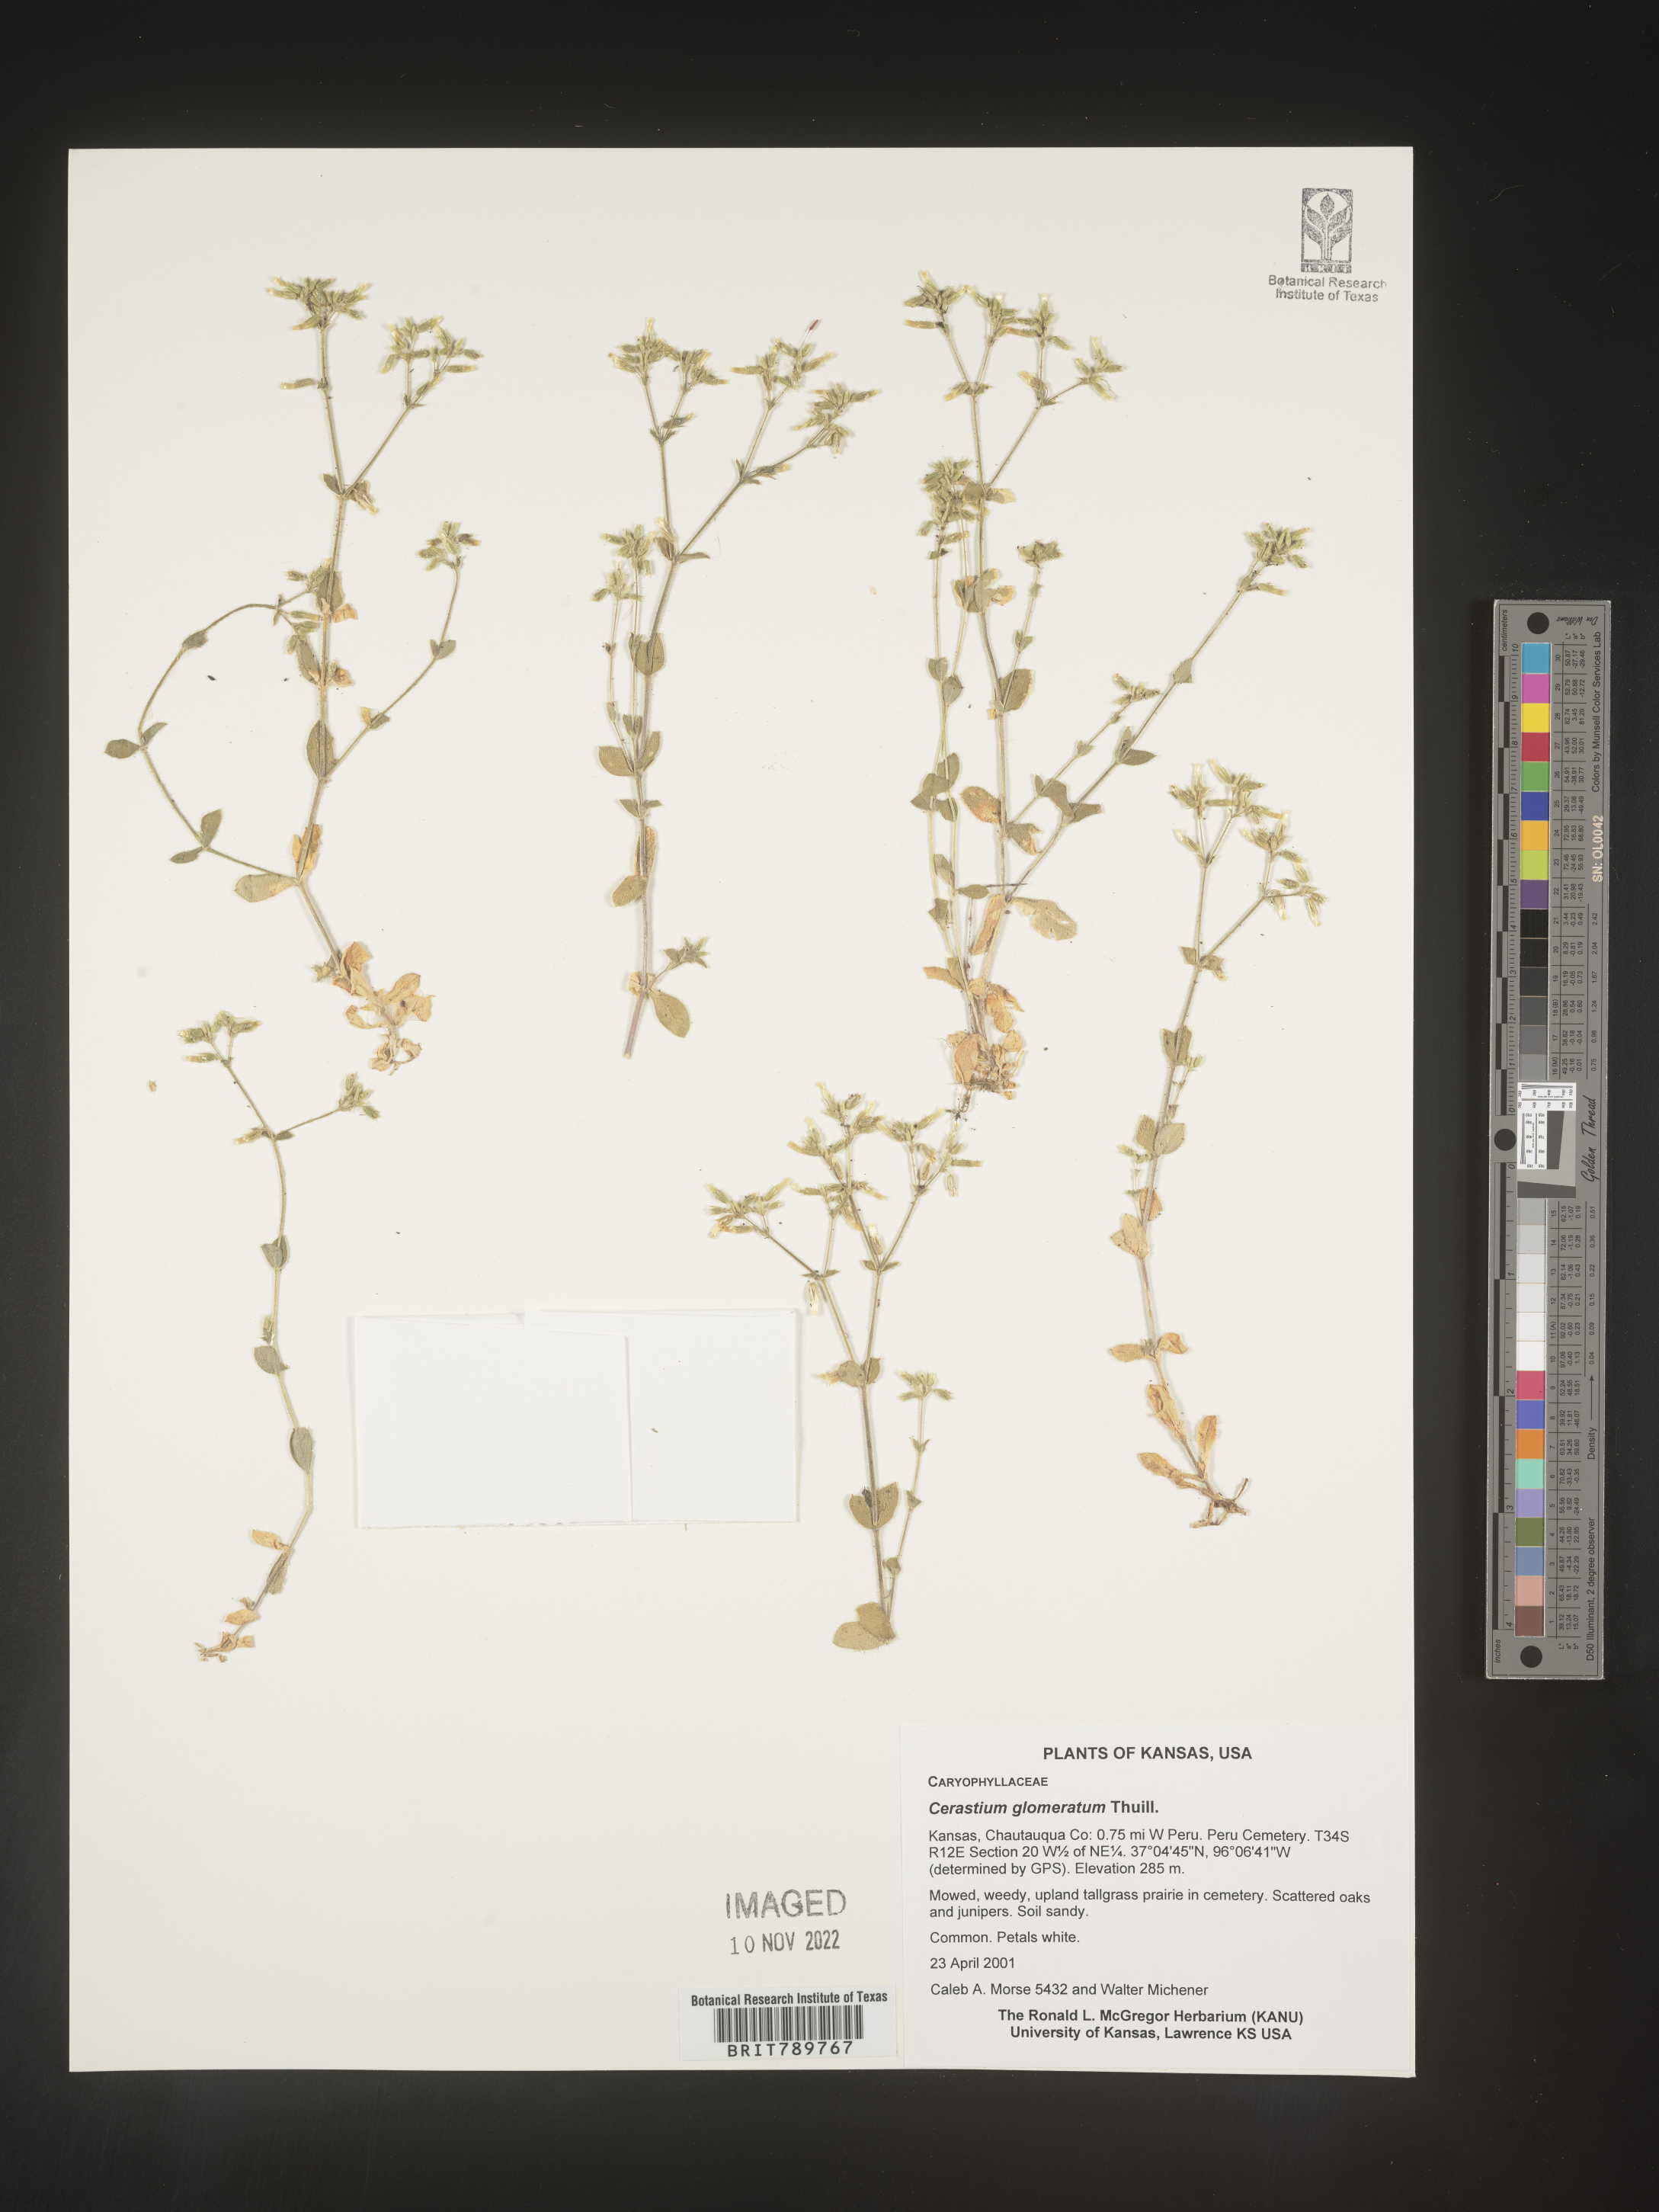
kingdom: Plantae
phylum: Tracheophyta
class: Magnoliopsida
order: Caryophyllales
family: Caryophyllaceae
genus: Cerastium
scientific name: Cerastium glomeratum
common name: Sticky chickweed
